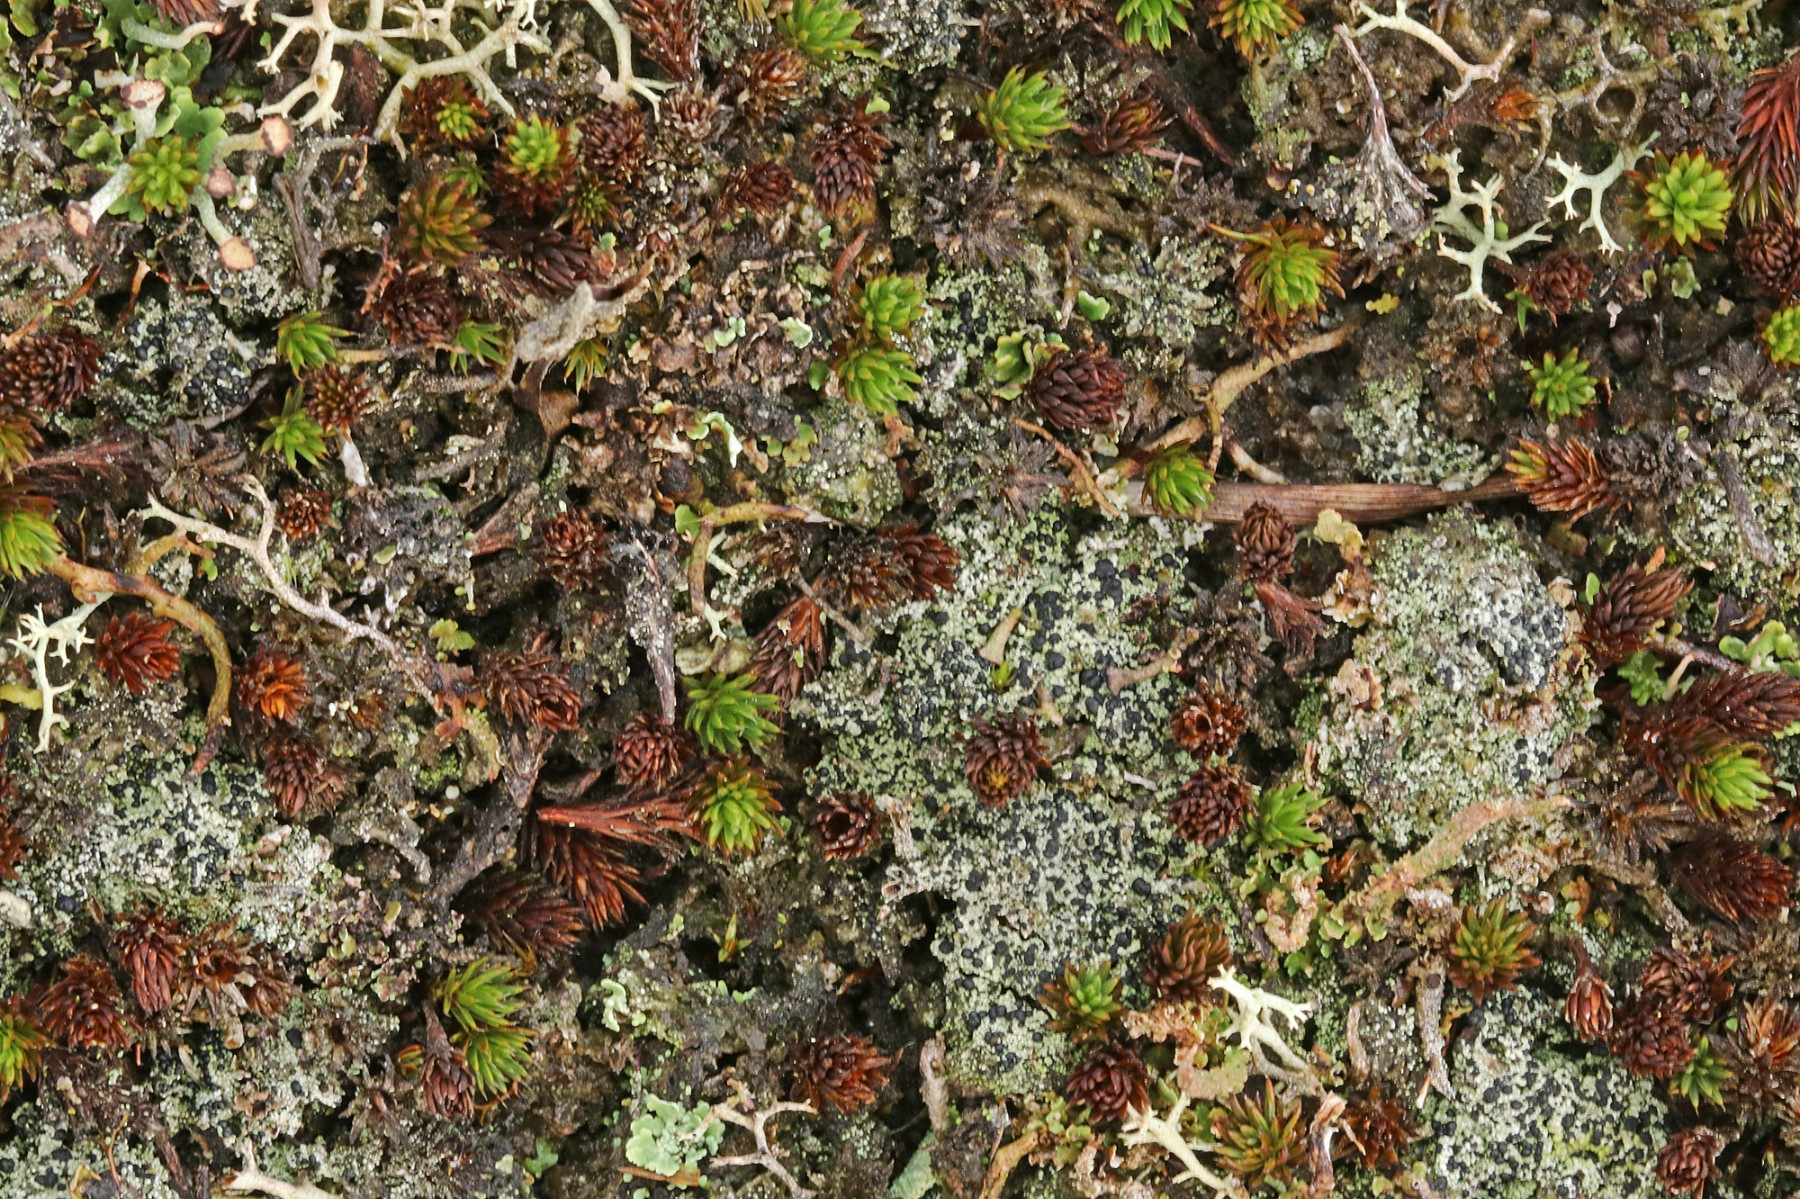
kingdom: Fungi
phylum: Ascomycota
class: Lecanoromycetes
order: Lecanorales
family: Byssolomataceae
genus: Micarea
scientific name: Micarea lignaria
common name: tørve-knaplav
